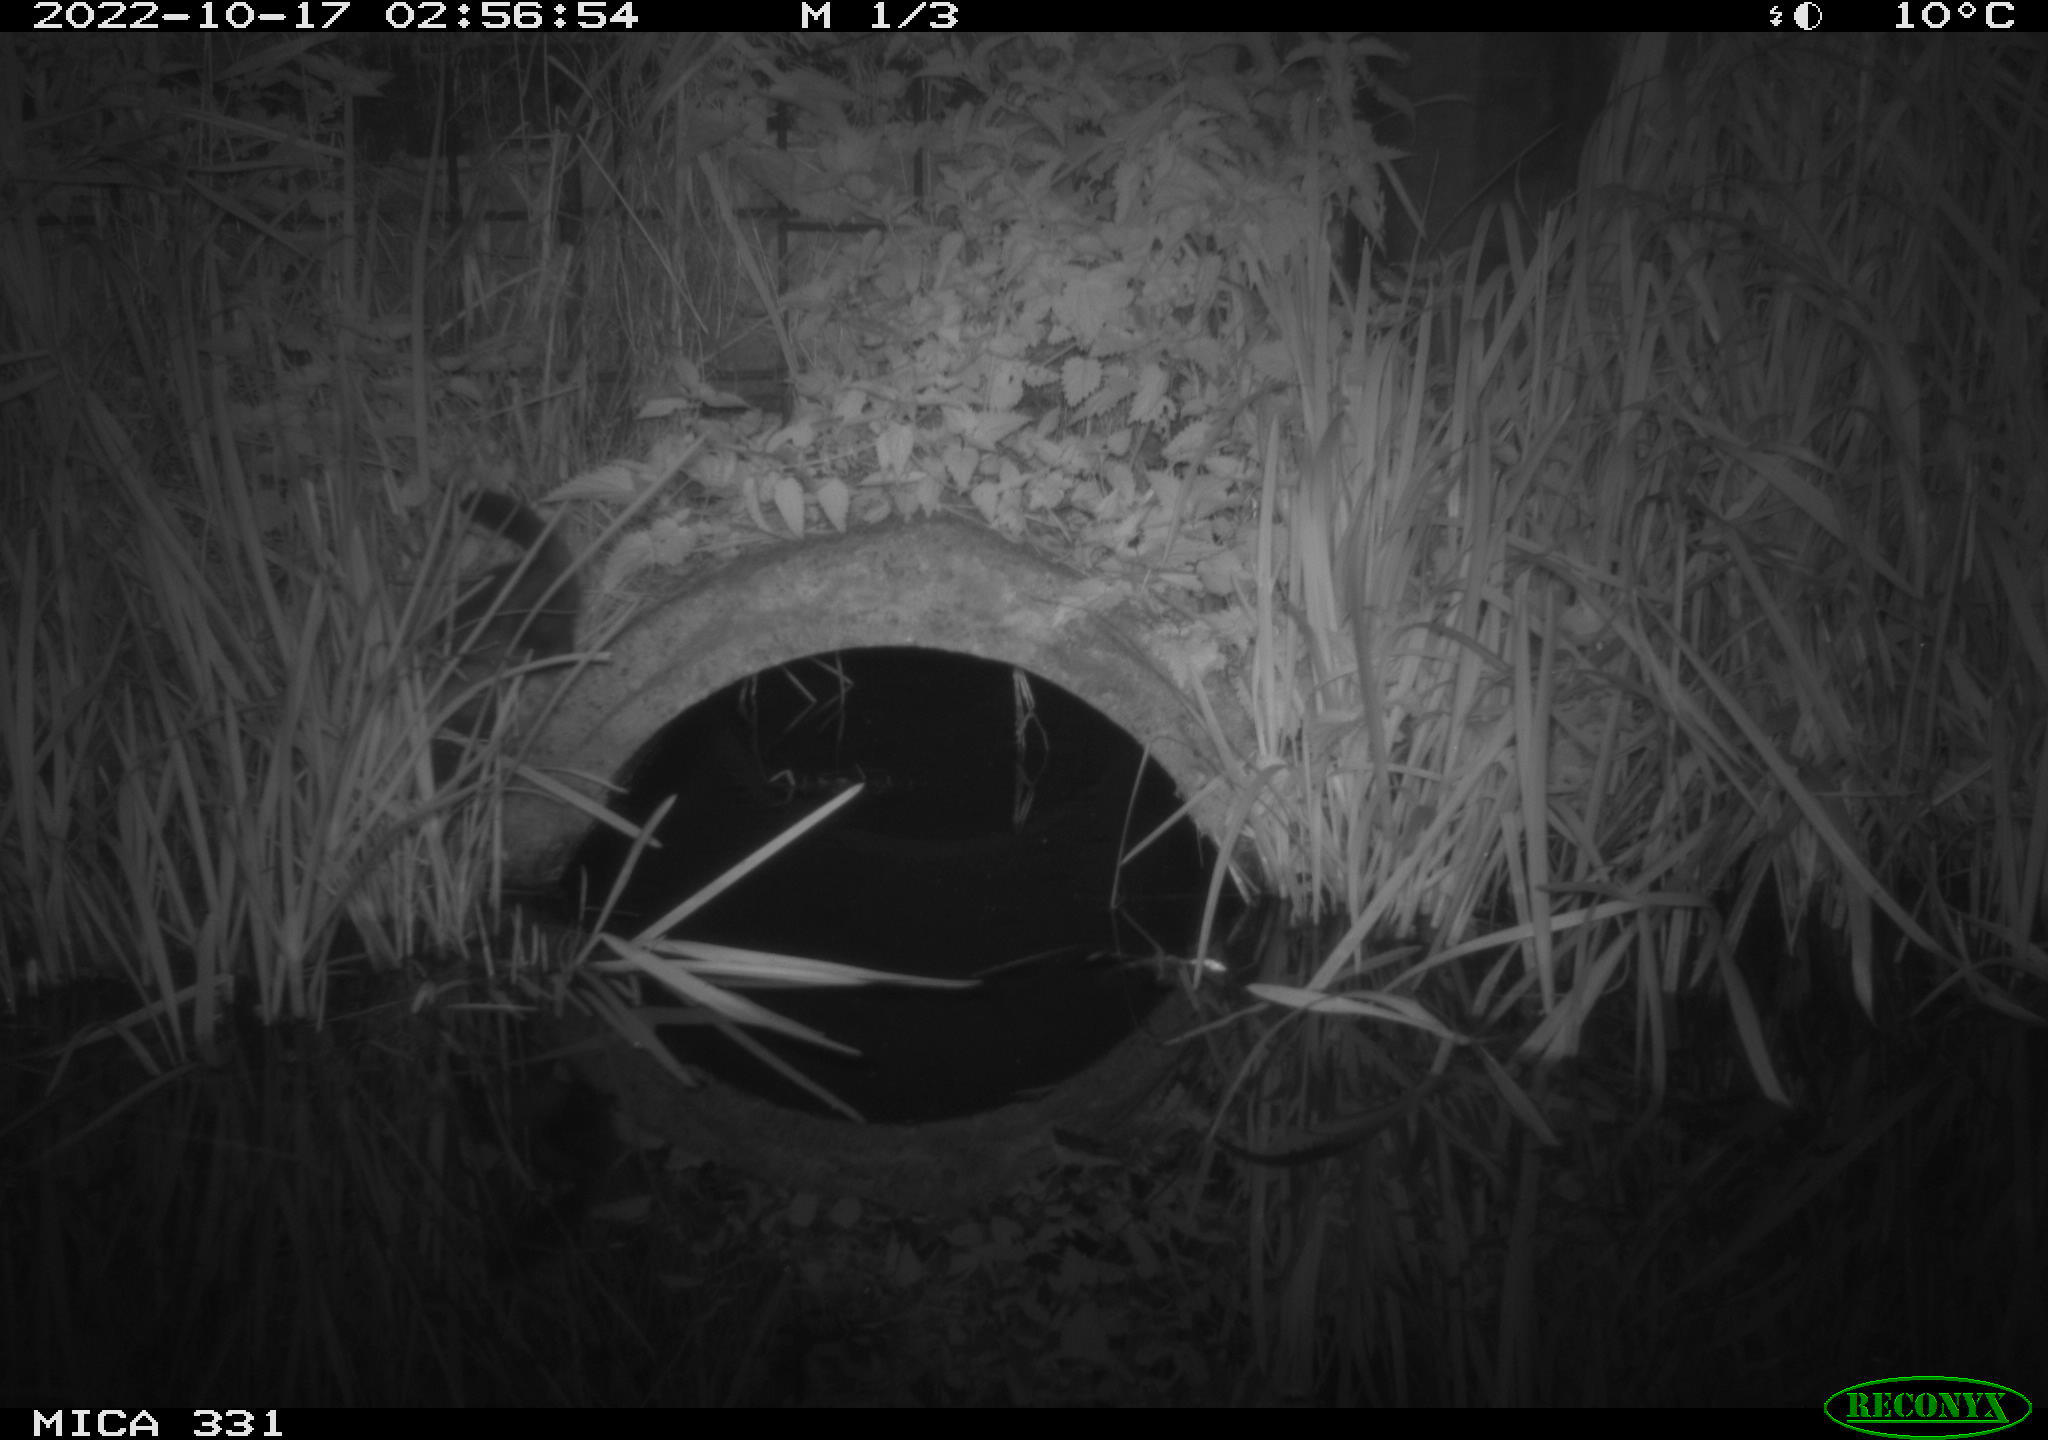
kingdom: Animalia
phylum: Chordata
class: Mammalia
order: Carnivora
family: Mustelidae
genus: Mustela
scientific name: Mustela putorius
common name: European polecat
